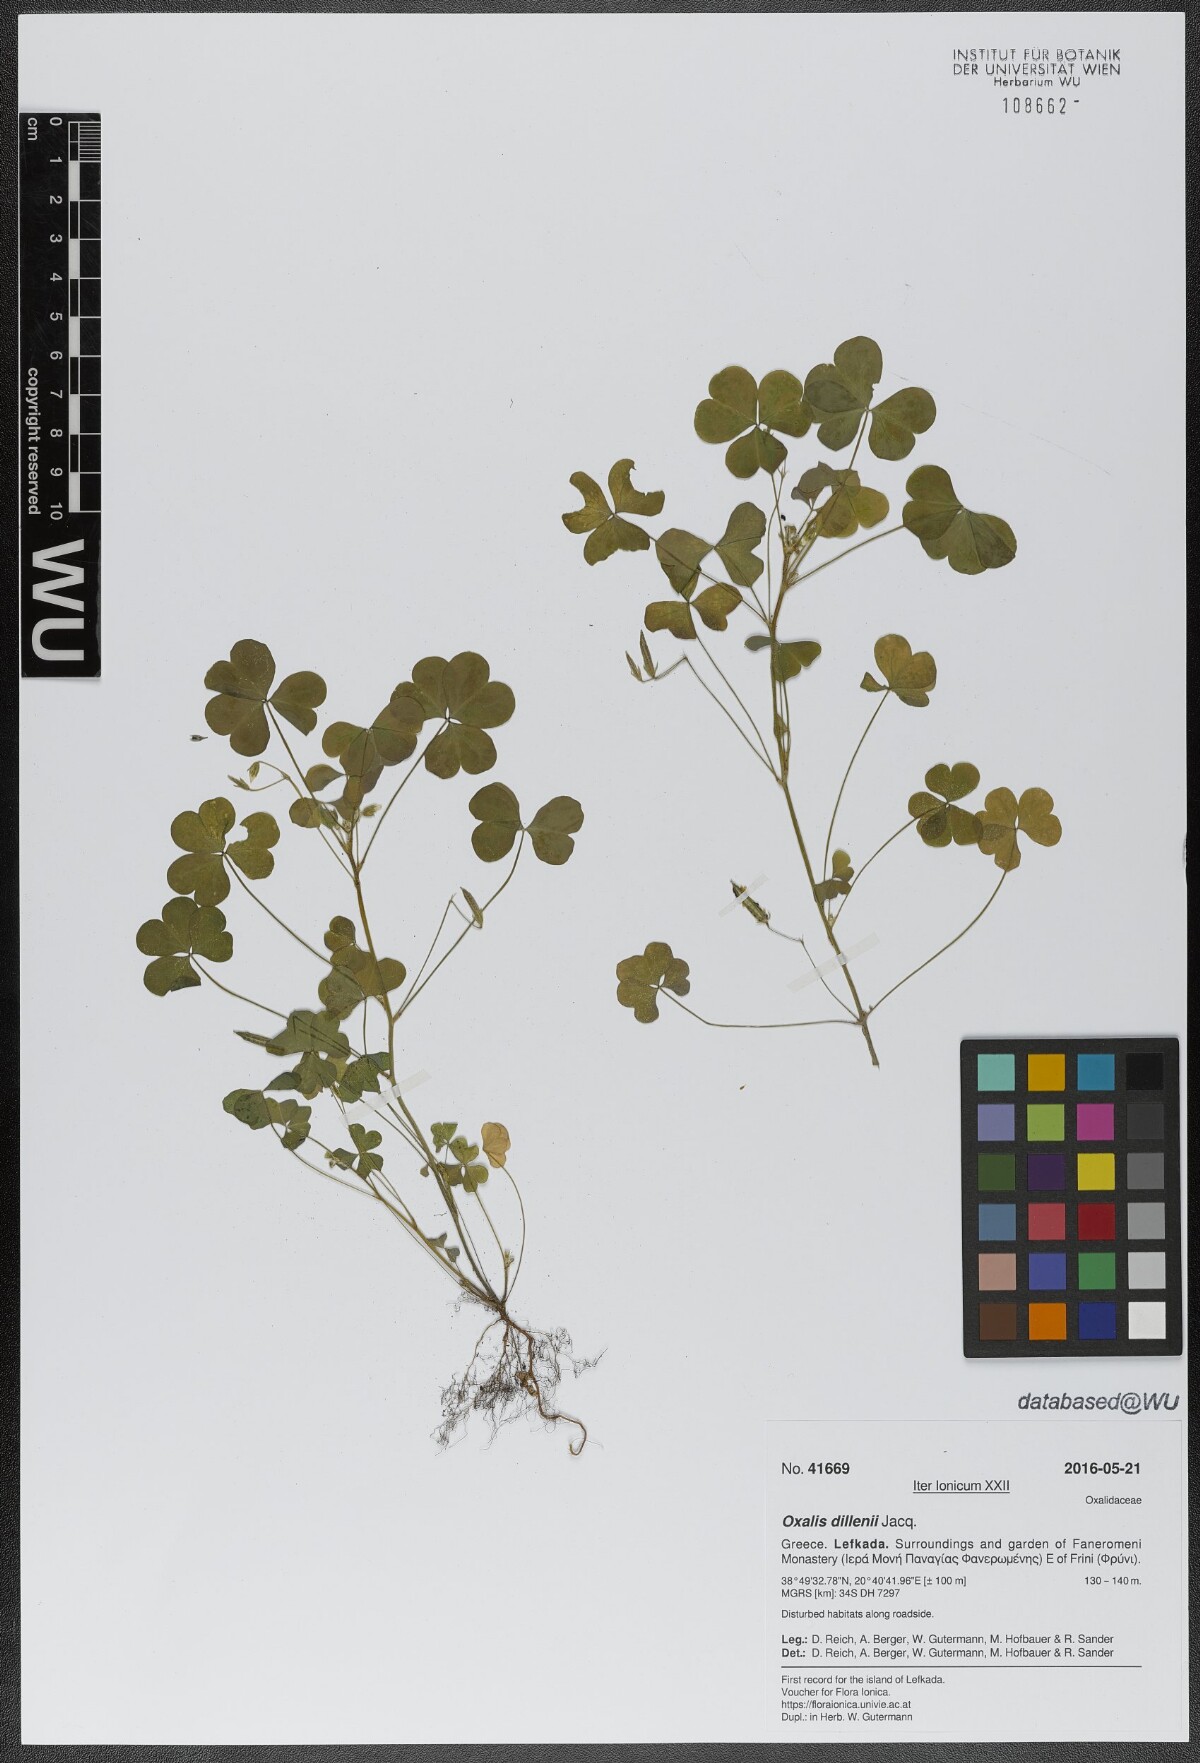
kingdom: Plantae
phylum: Tracheophyta
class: Magnoliopsida
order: Oxalidales
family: Oxalidaceae
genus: Oxalis
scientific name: Oxalis dillenii
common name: Sussex yellow-sorrel
